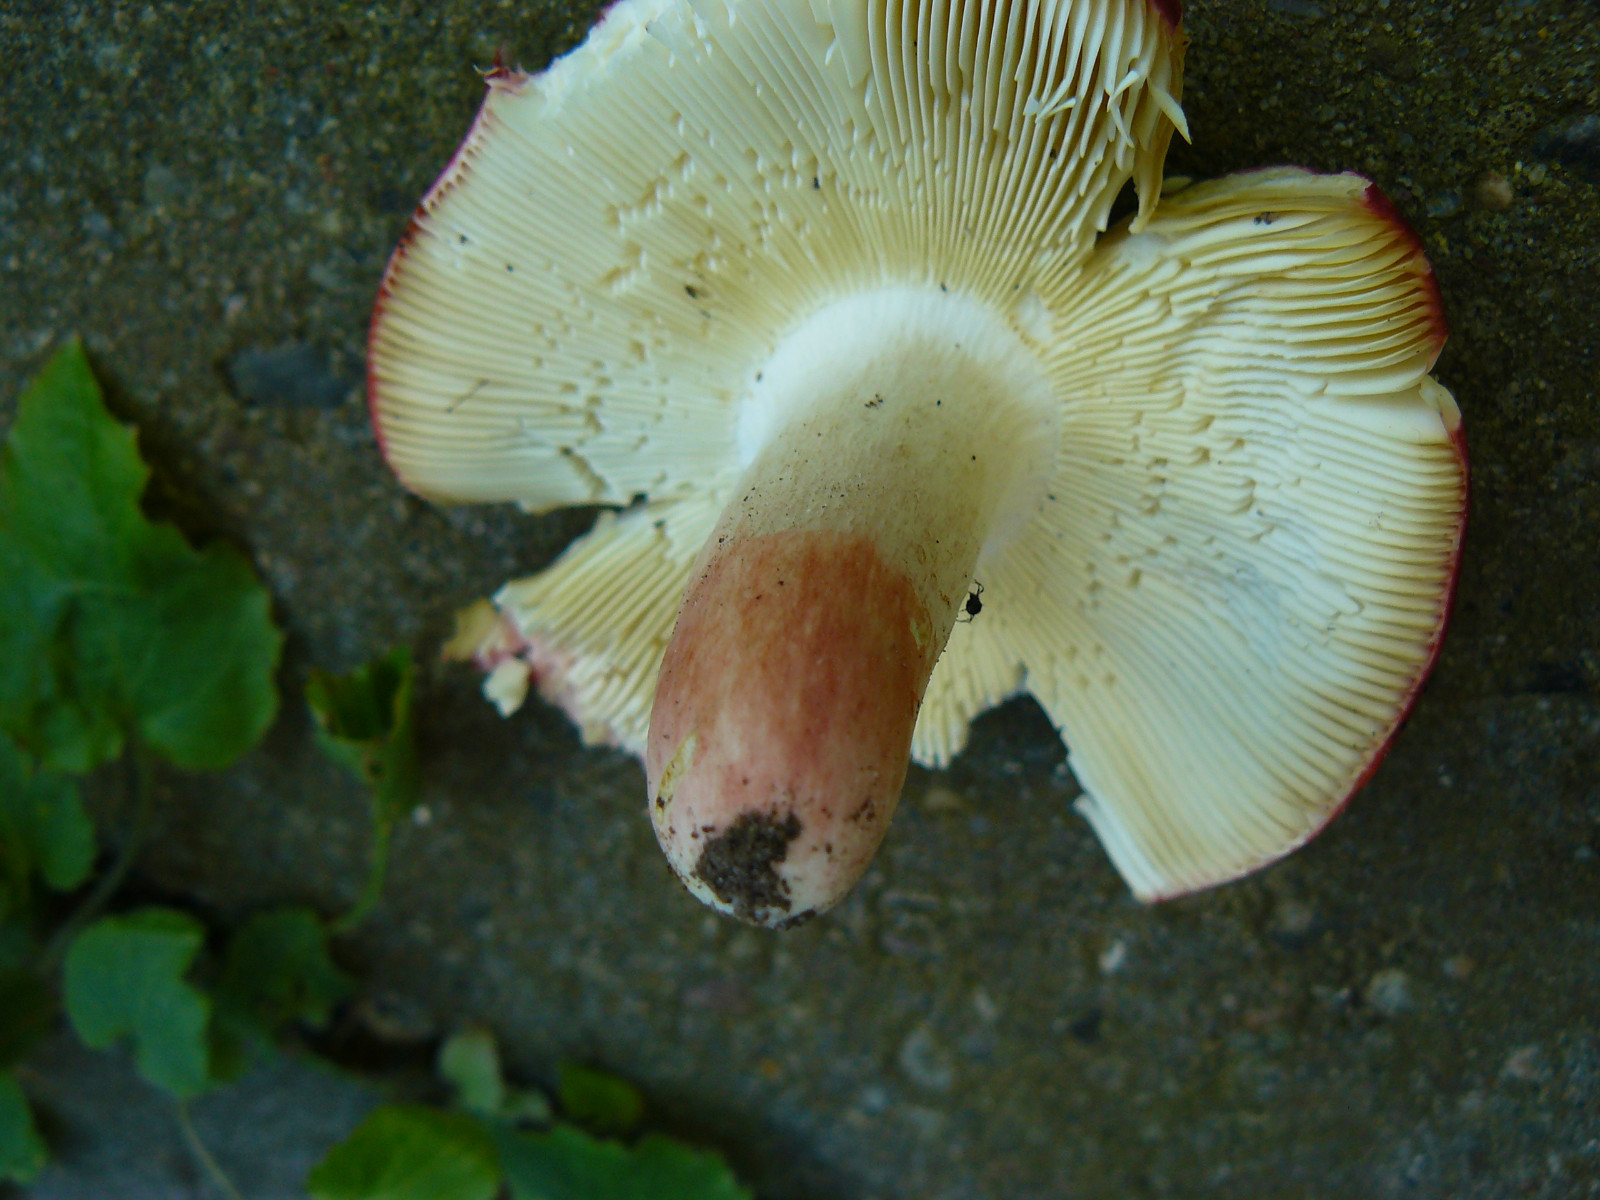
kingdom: Fungi
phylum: Basidiomycota
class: Agaricomycetes
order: Russulales
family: Russulaceae
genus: Russula
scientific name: Russula rosea
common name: fastkødet skørhat
